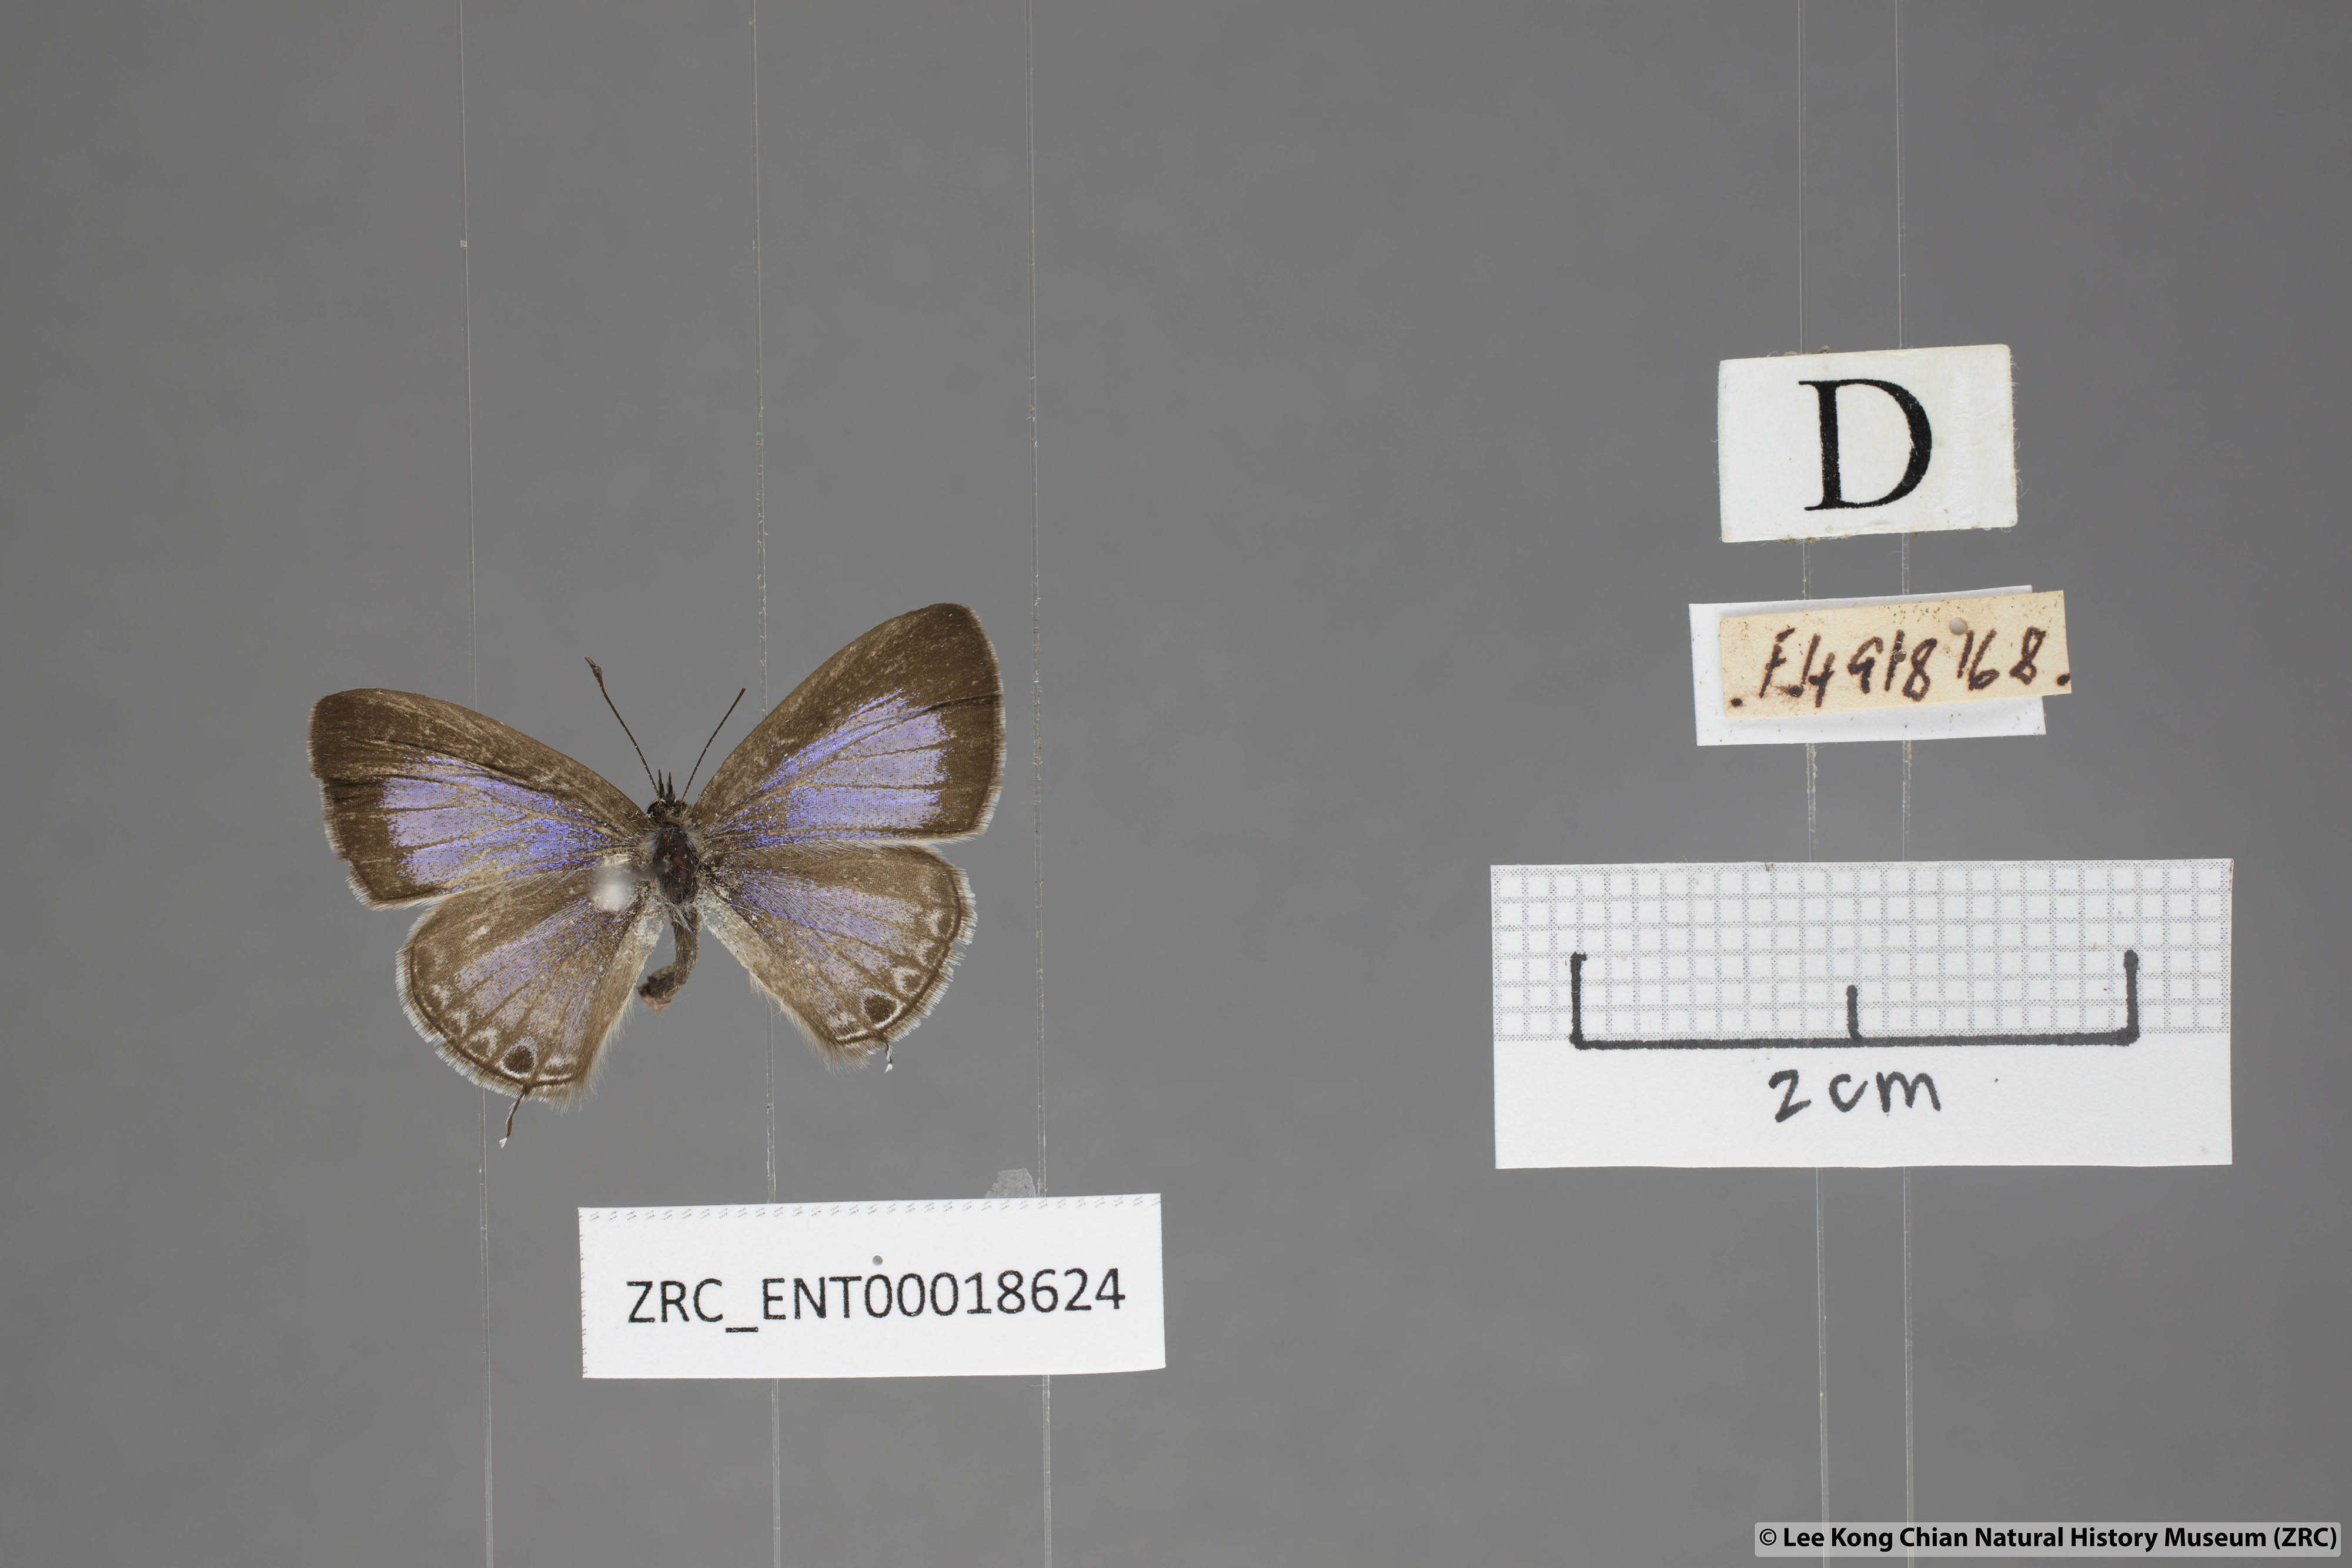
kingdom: Animalia
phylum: Arthropoda
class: Insecta
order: Lepidoptera
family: Lycaenidae
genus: Prosotas
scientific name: Prosotas nelides
